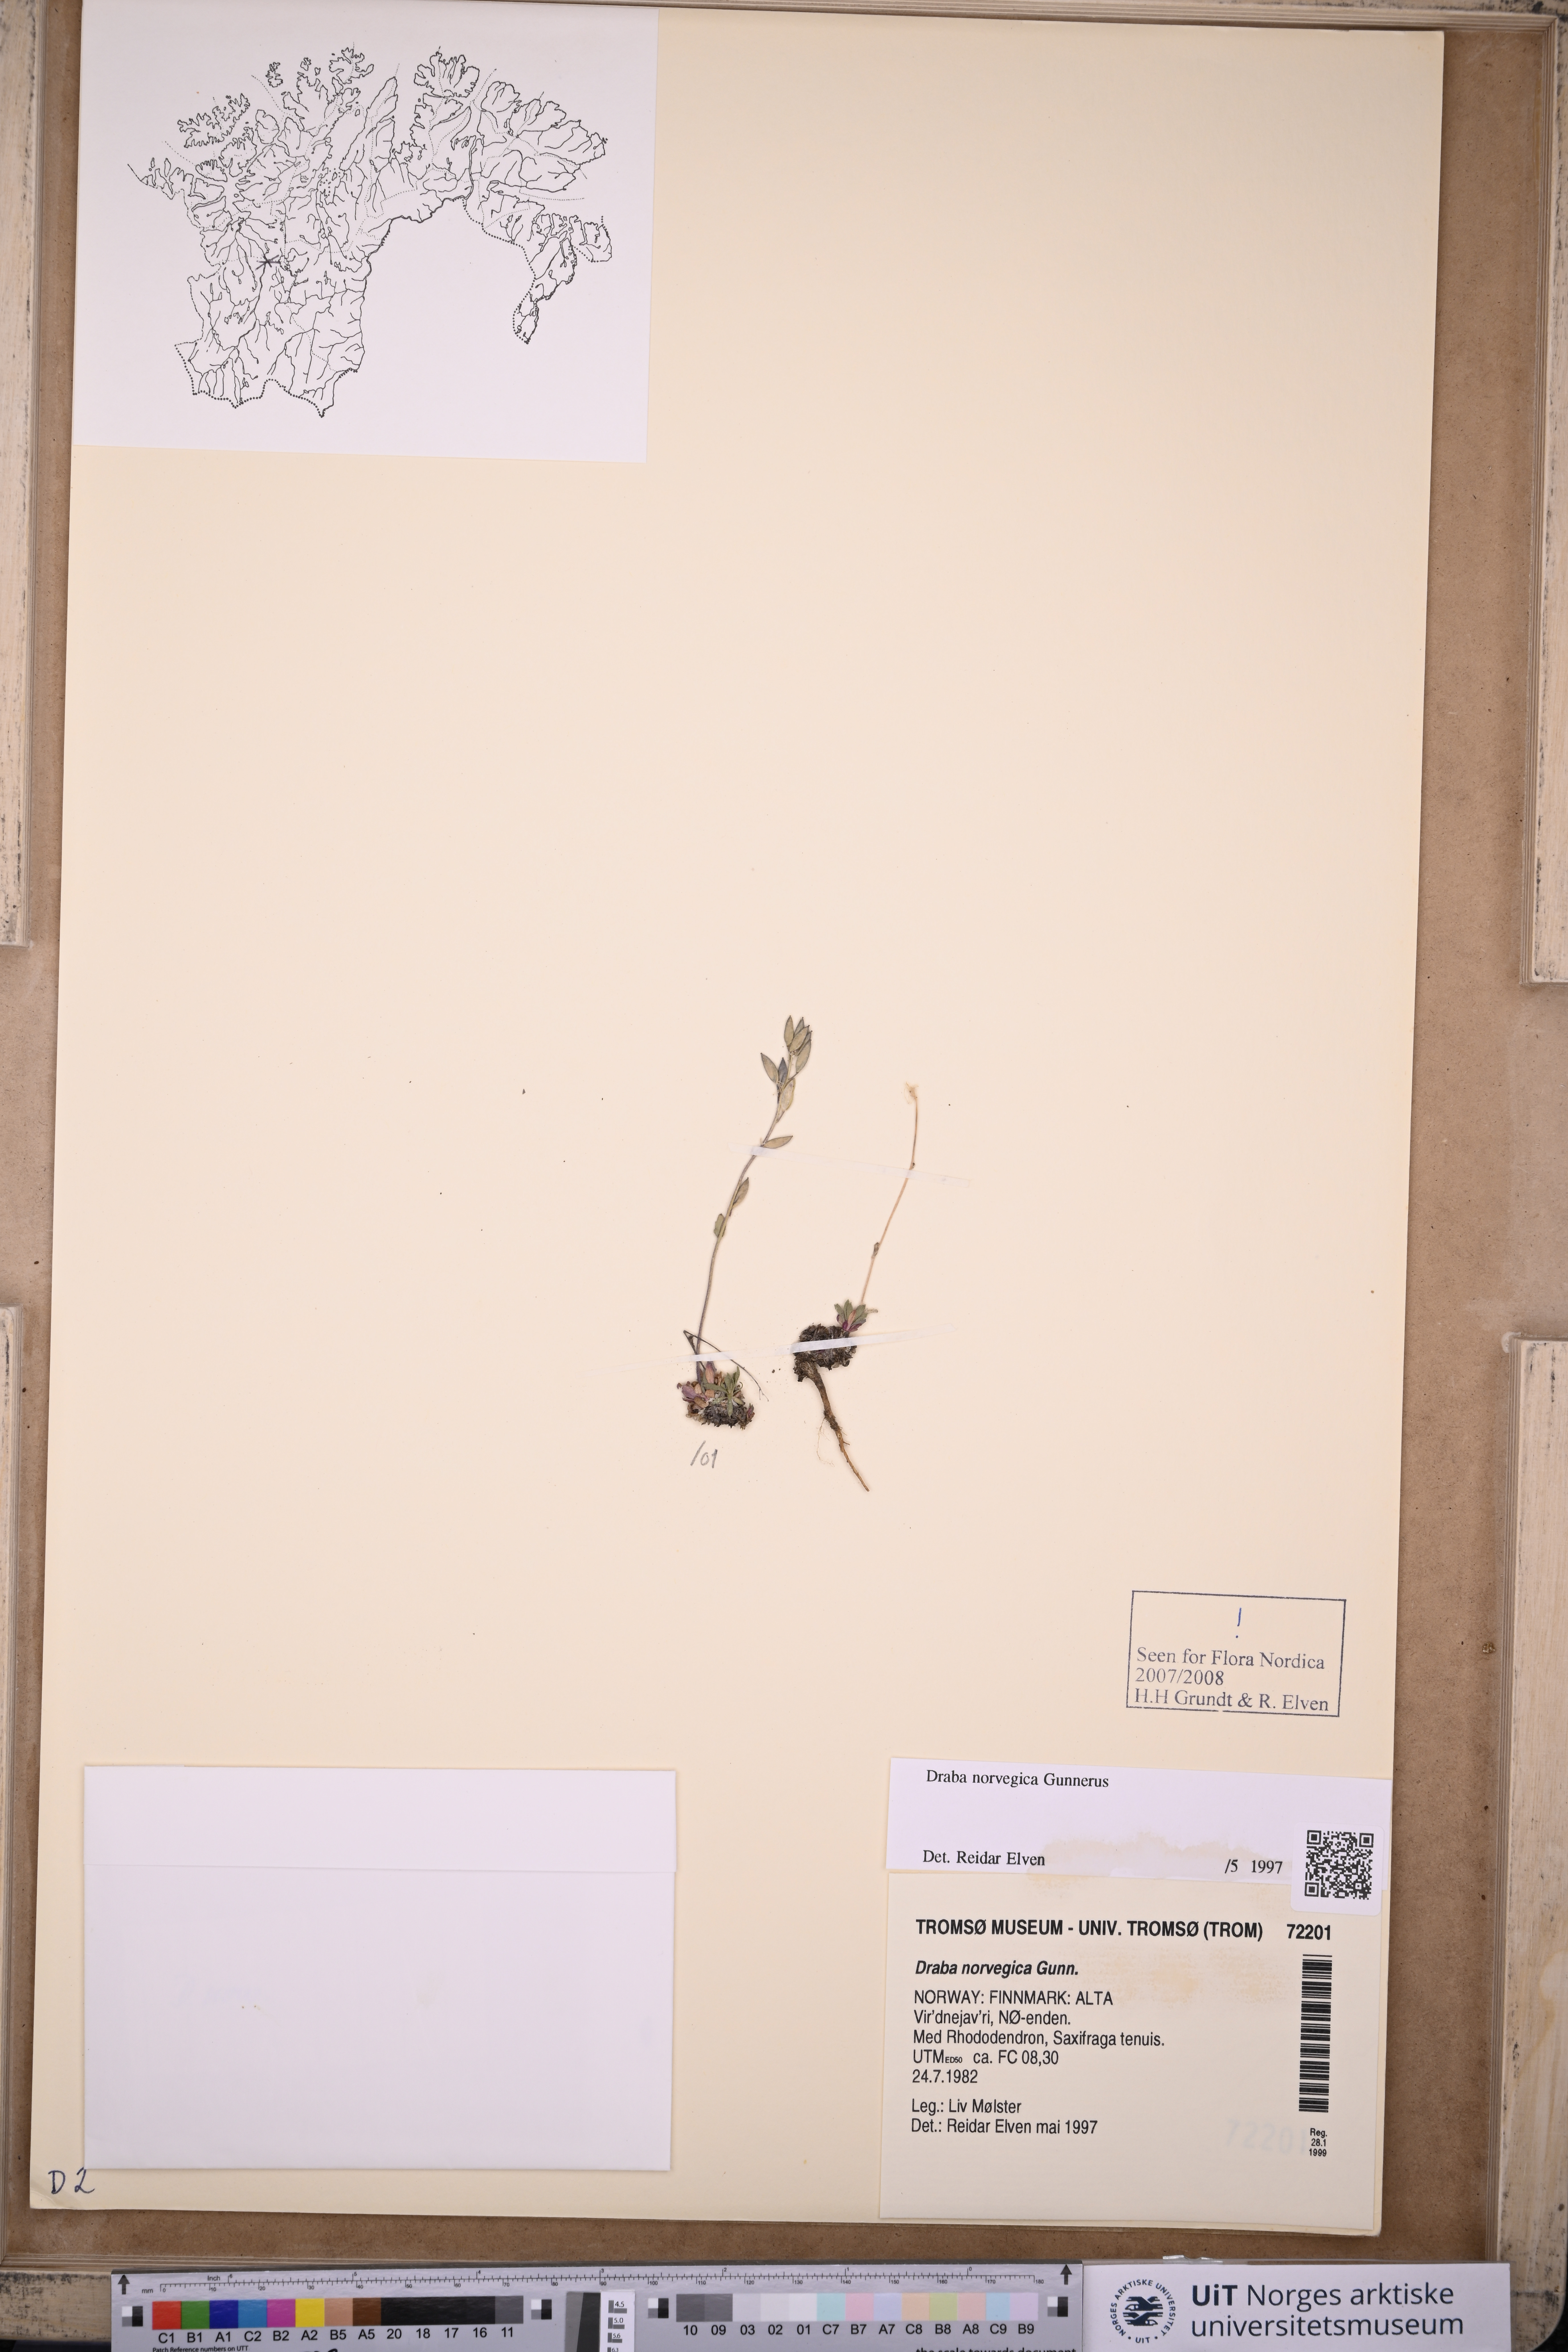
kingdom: Plantae
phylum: Tracheophyta
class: Magnoliopsida
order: Brassicales
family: Brassicaceae
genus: Draba
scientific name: Draba norvegica
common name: Rock whitlowgrass
